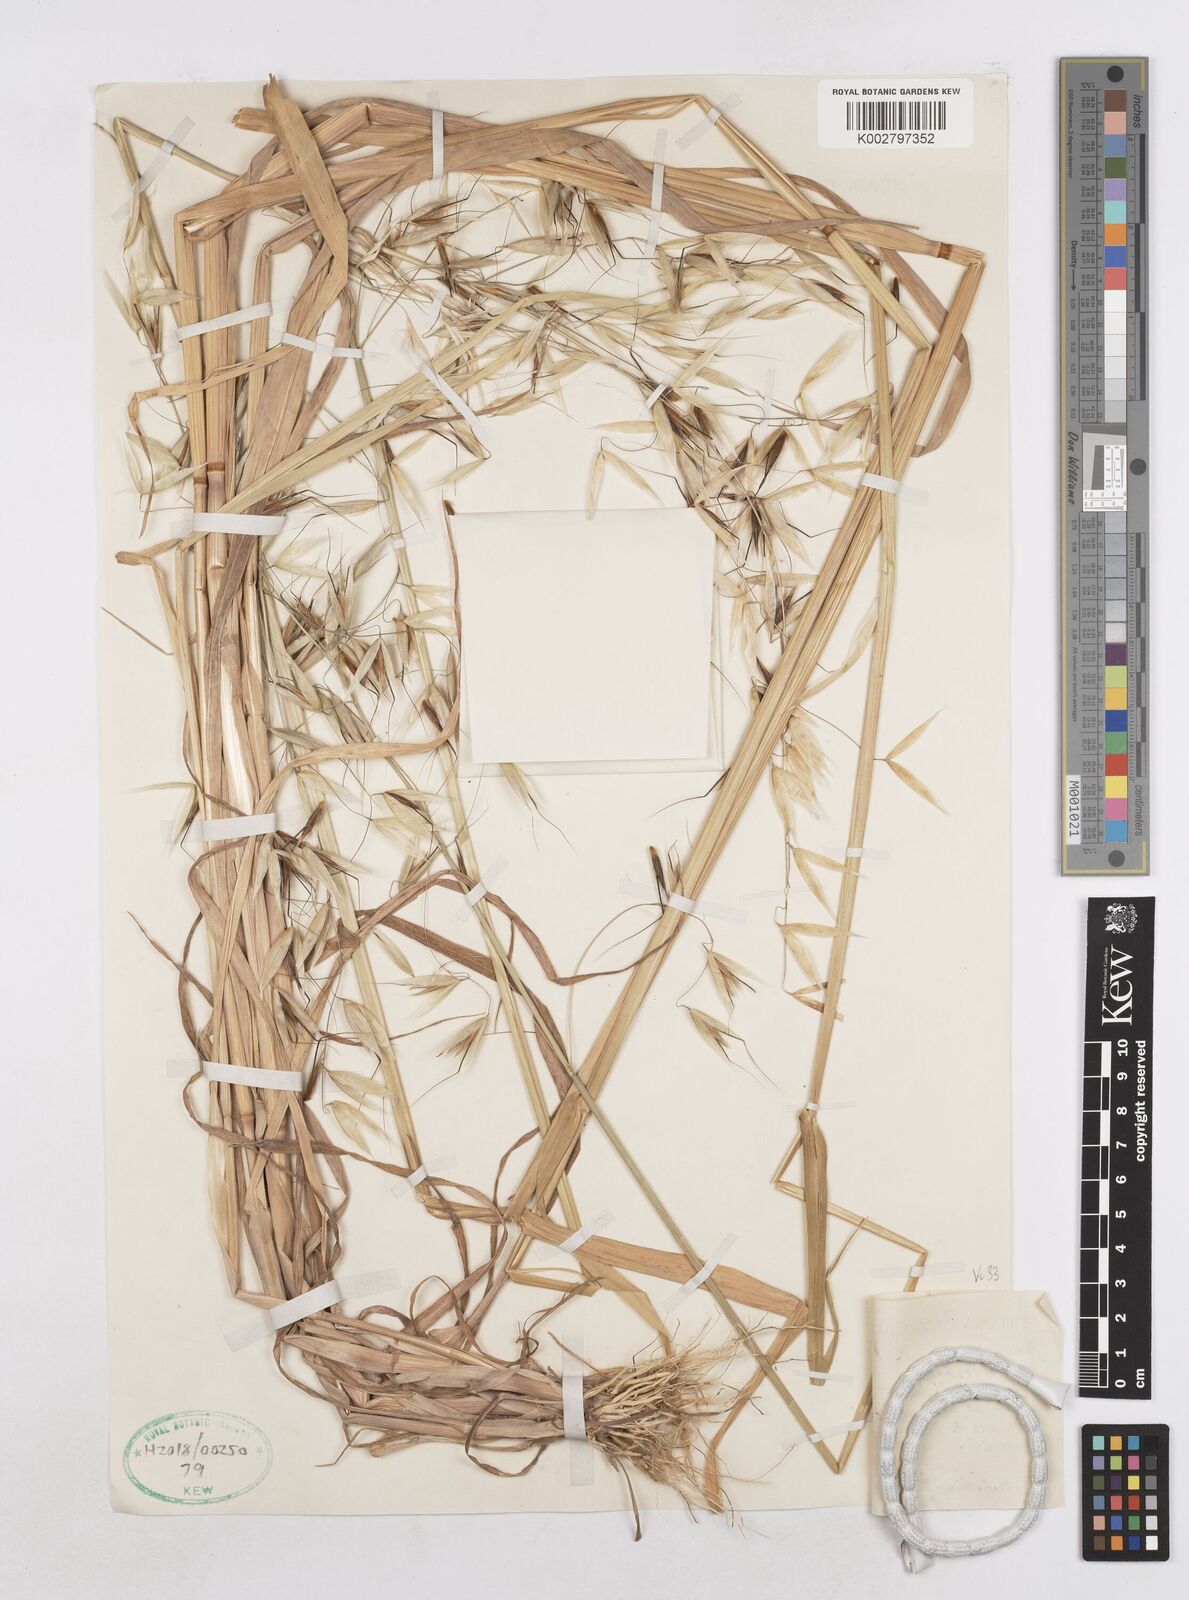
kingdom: Plantae
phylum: Tracheophyta
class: Liliopsida
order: Poales
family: Poaceae
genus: Avena
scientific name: Avena fatua
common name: Wild oat
